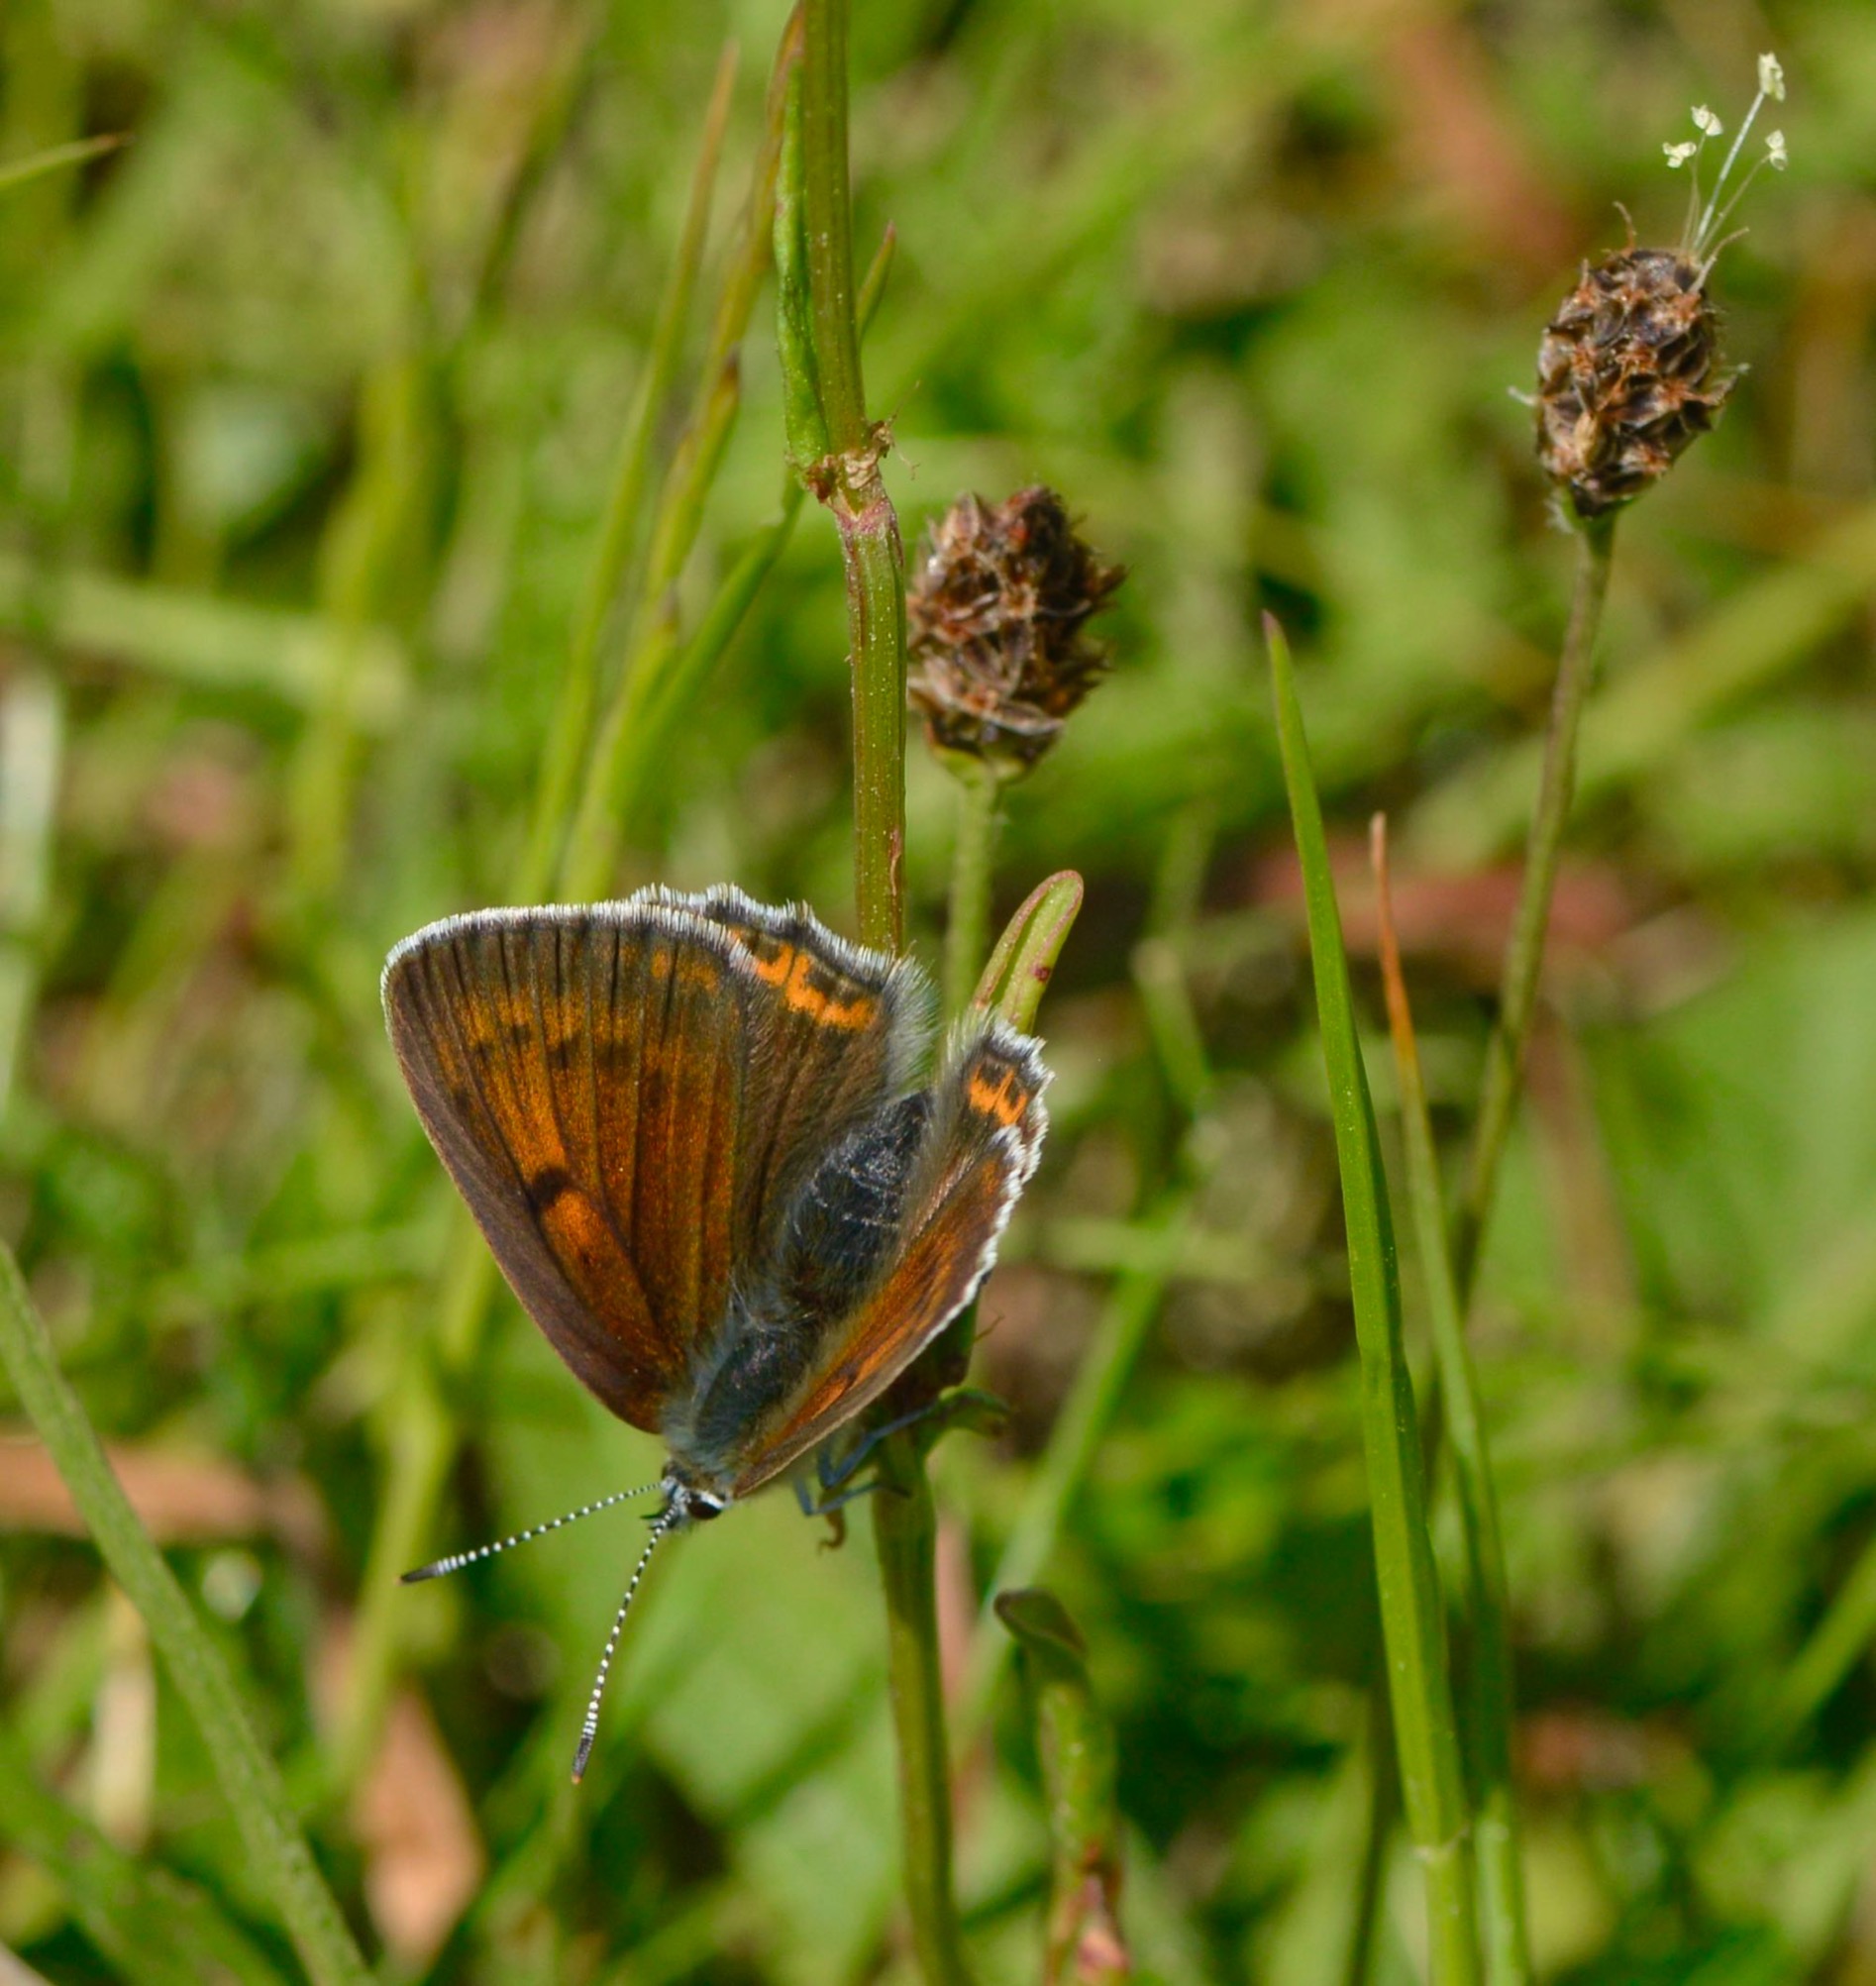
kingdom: Animalia
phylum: Arthropoda
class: Insecta
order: Lepidoptera
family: Lycaenidae
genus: Palaeochrysophanus
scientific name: Palaeochrysophanus hippothoe
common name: Violetrandet ildfugl
